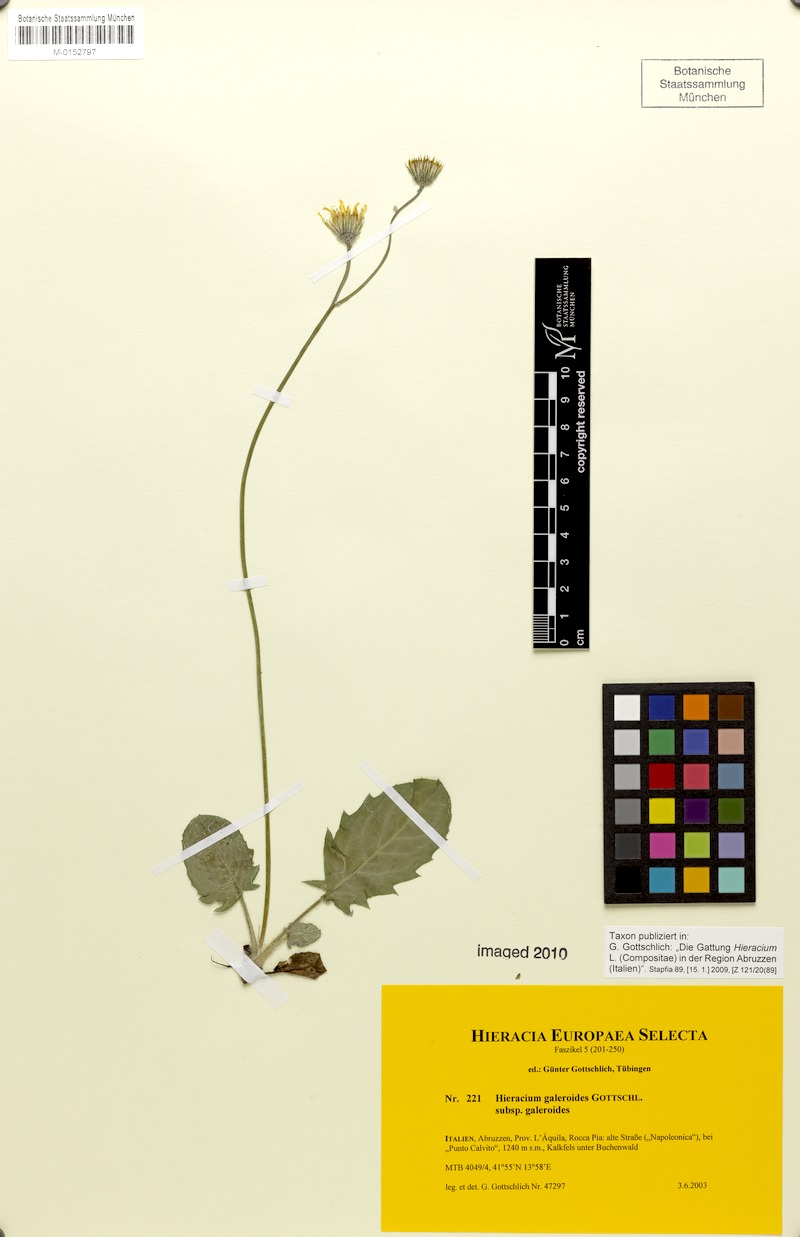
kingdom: Plantae
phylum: Tracheophyta
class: Magnoliopsida
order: Asterales
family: Asteraceae
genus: Hieracium
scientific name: Hieracium galeroides
